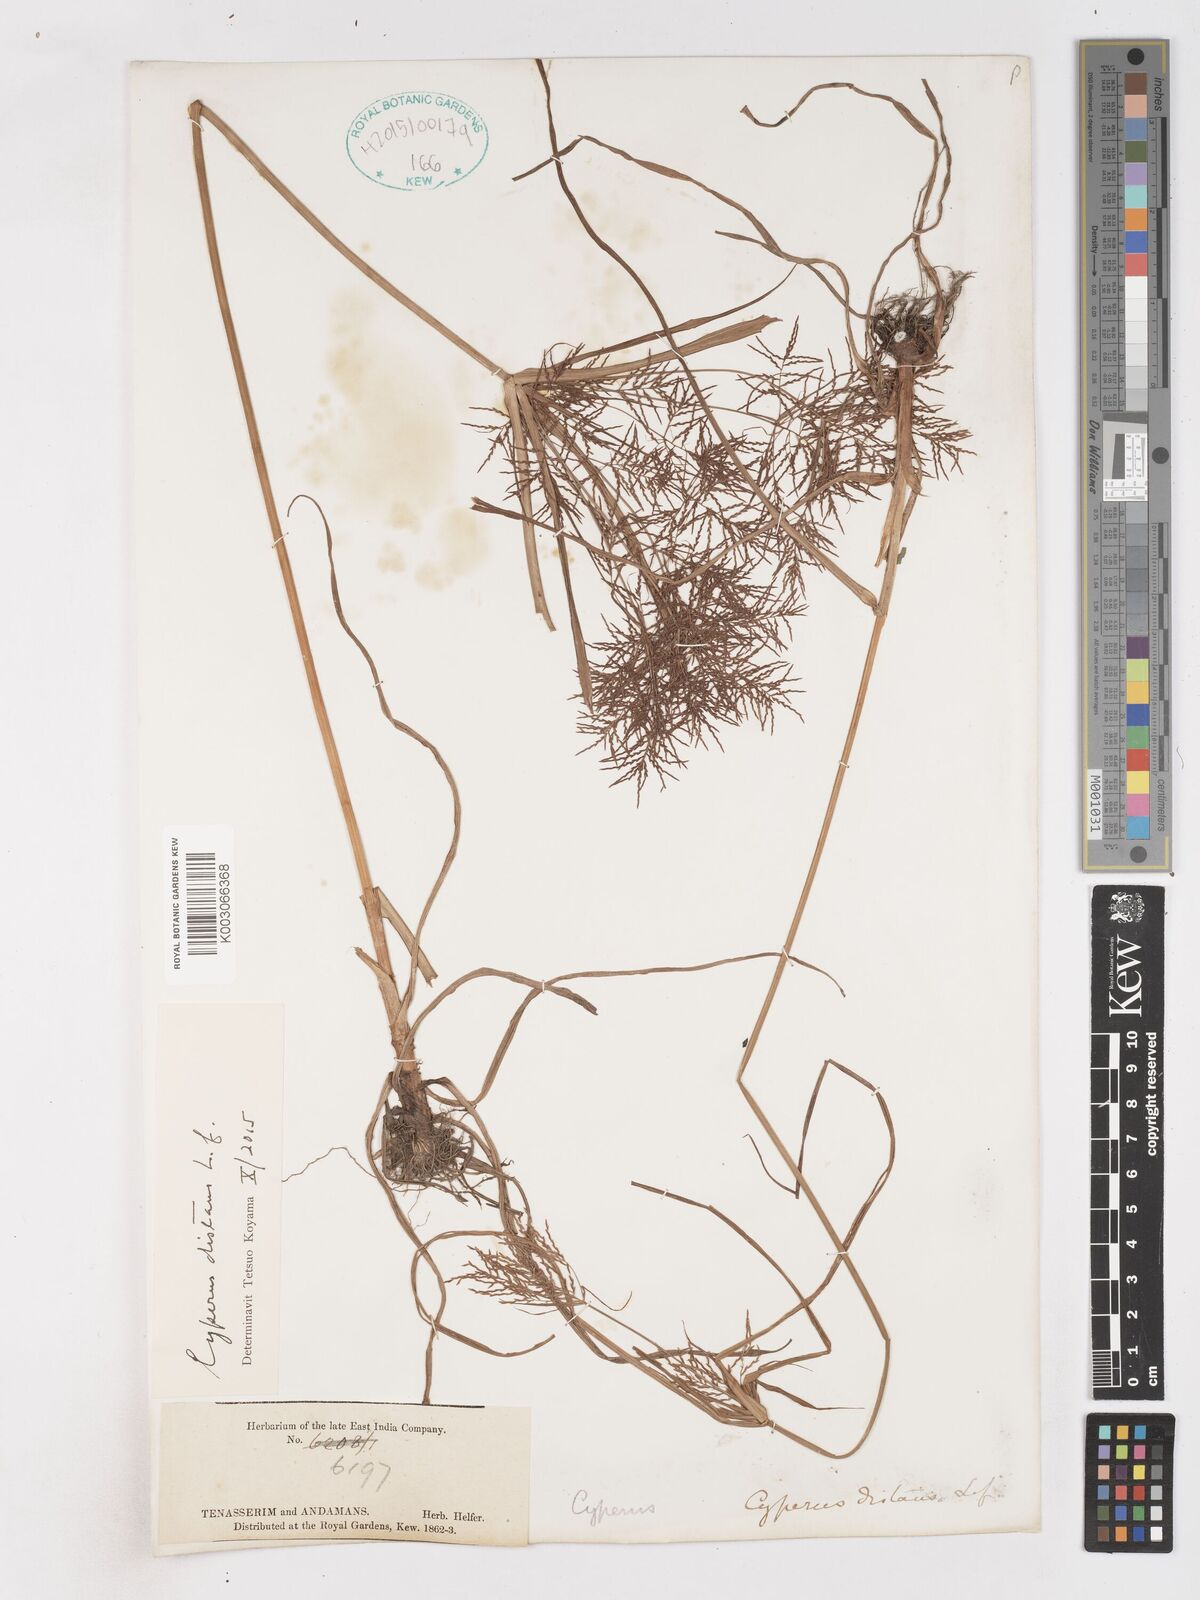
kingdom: Plantae
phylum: Tracheophyta
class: Liliopsida
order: Poales
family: Cyperaceae
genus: Cyperus
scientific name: Cyperus distans
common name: Slender cyperus
